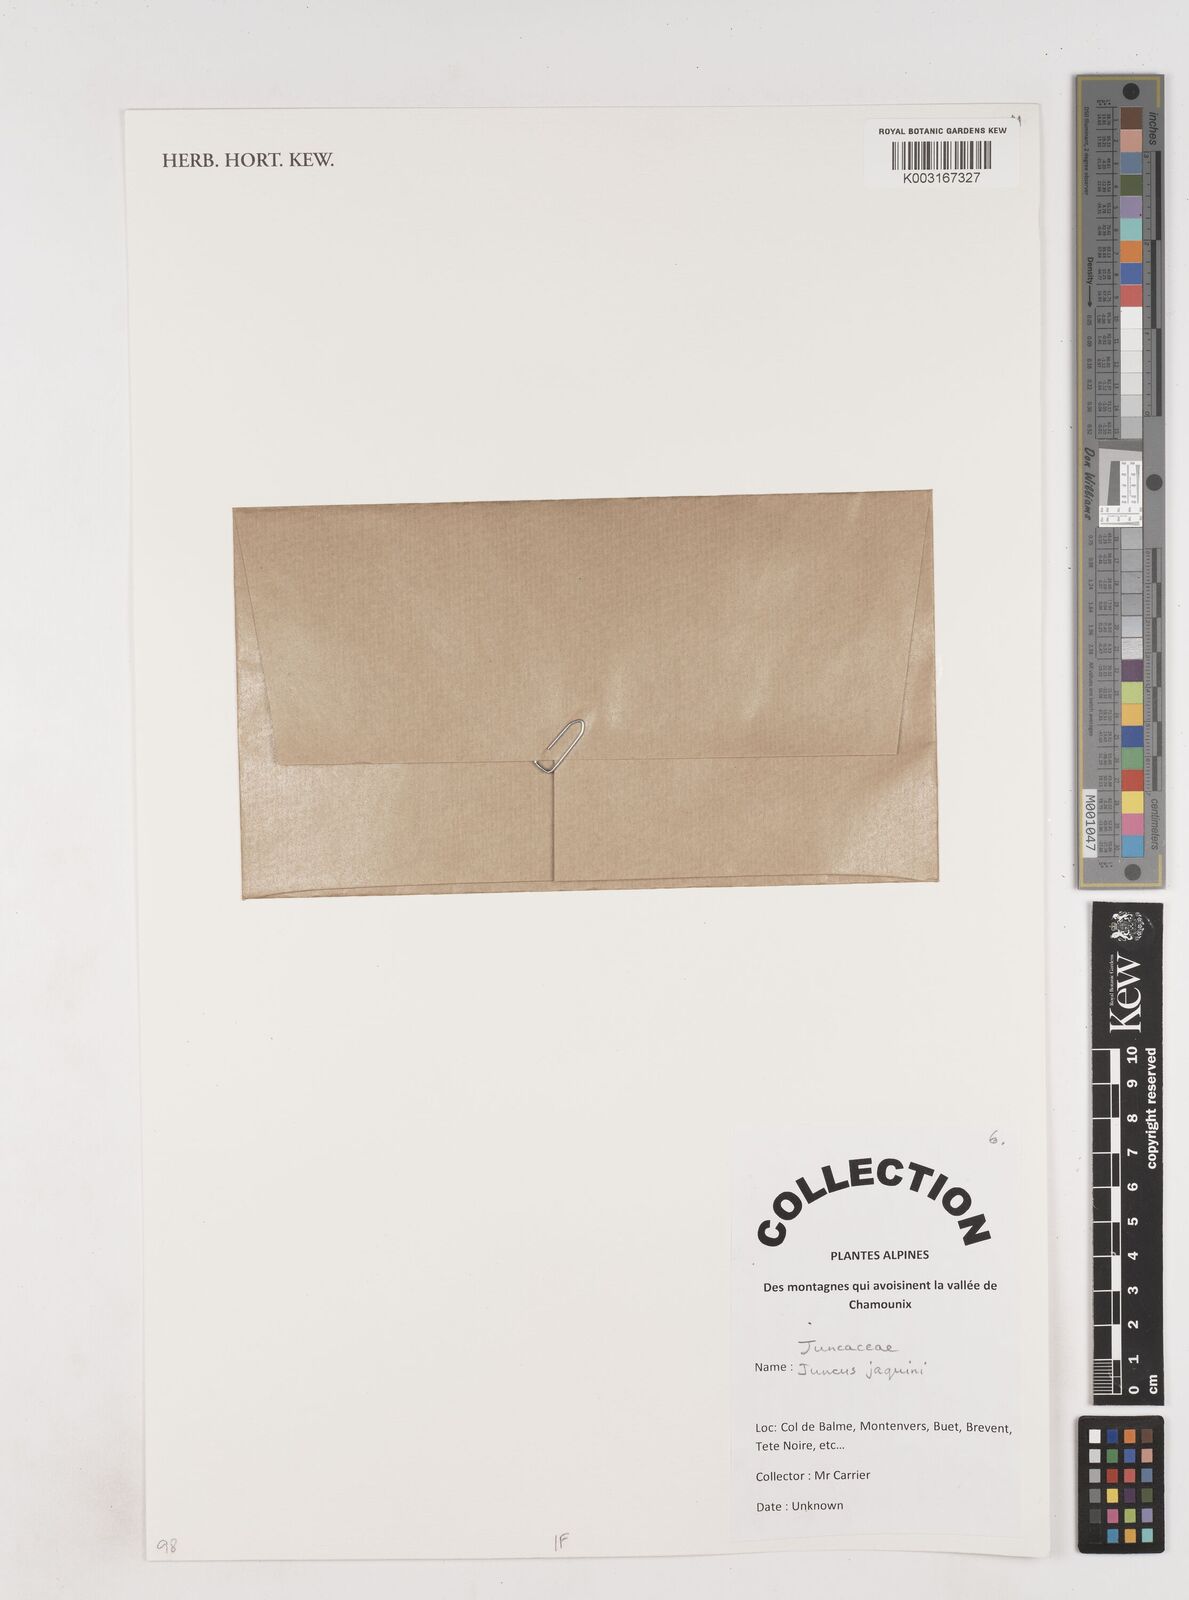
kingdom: Plantae
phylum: Tracheophyta
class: Liliopsida
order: Poales
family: Juncaceae
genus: Juncus
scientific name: Juncus jacquinii
